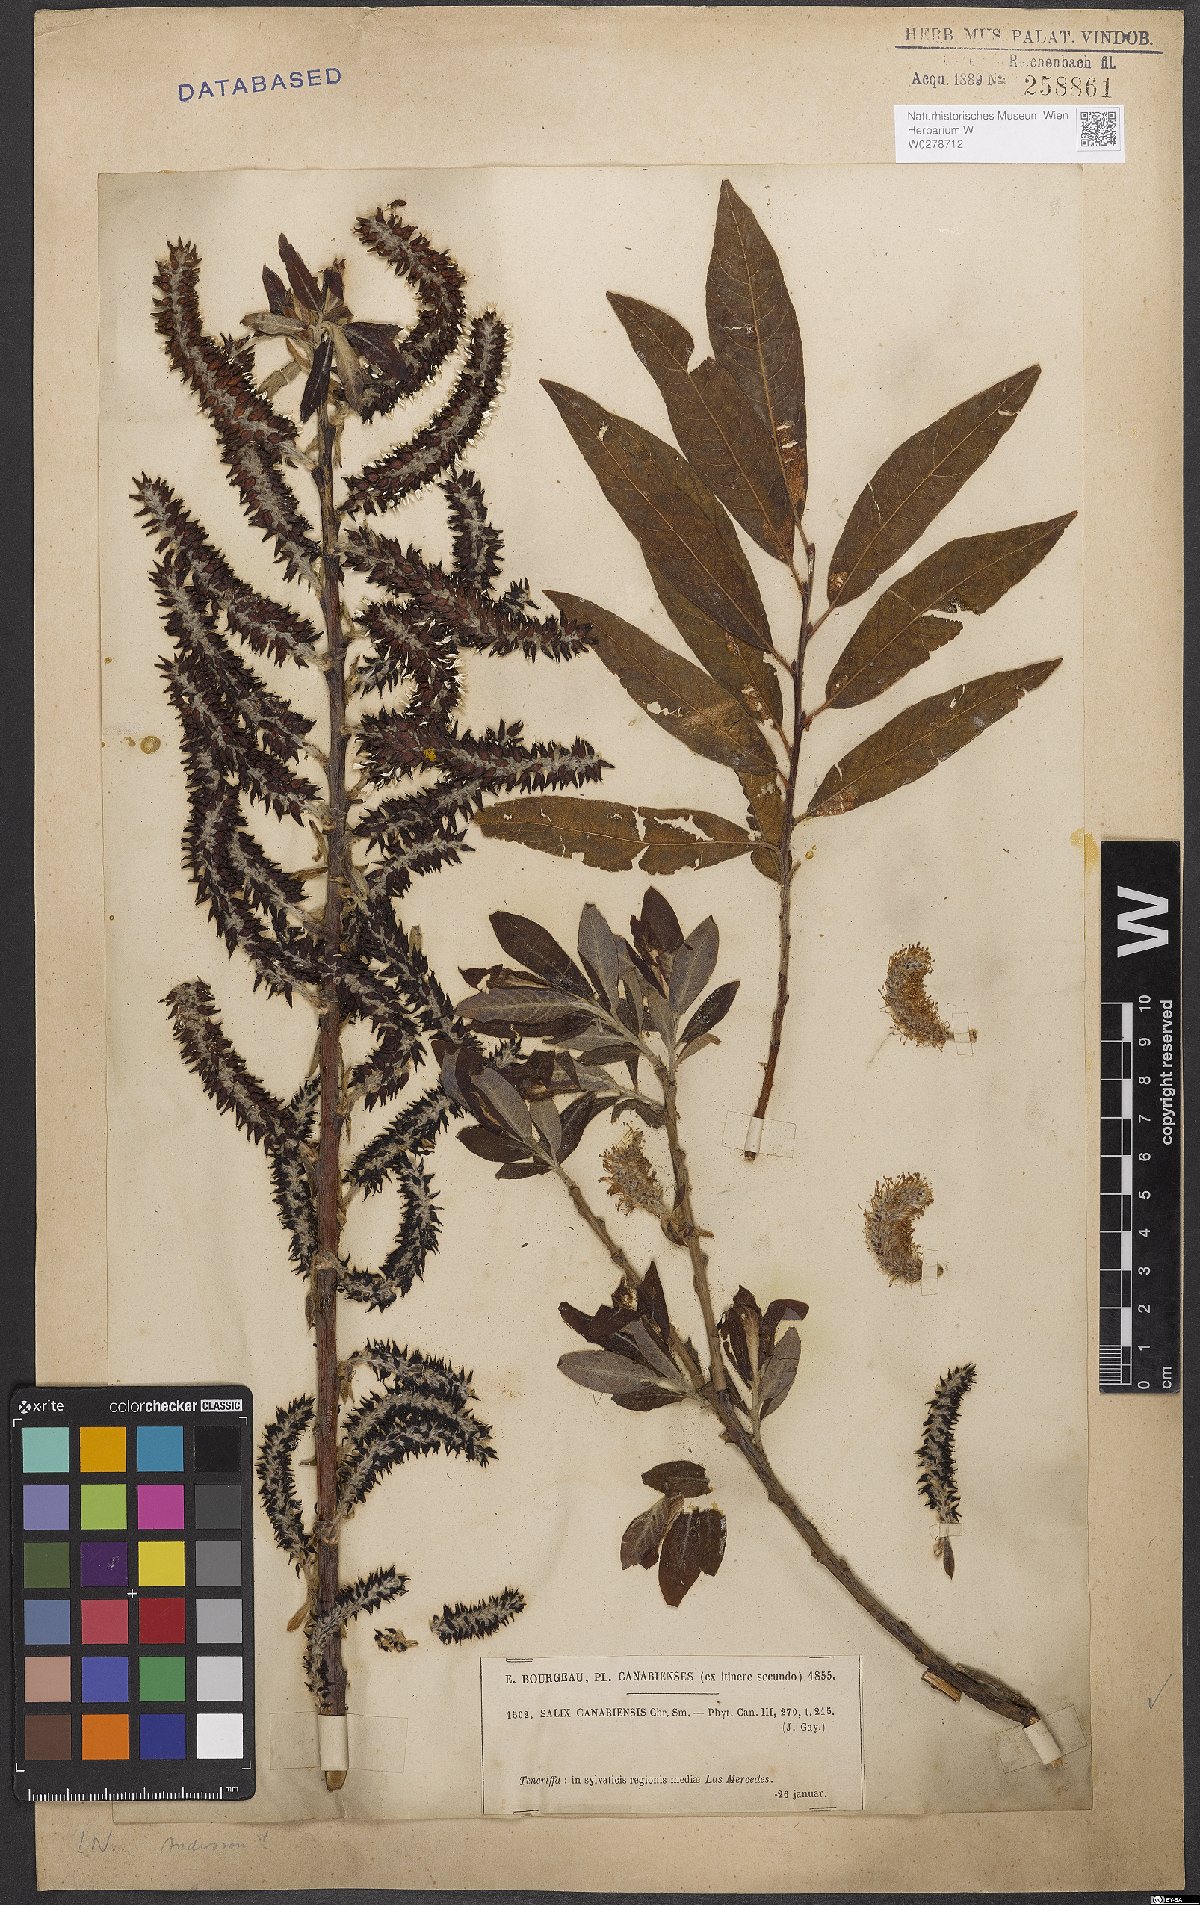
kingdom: Plantae
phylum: Tracheophyta
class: Magnoliopsida
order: Malpighiales
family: Salicaceae
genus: Salix
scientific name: Salix canariensis
